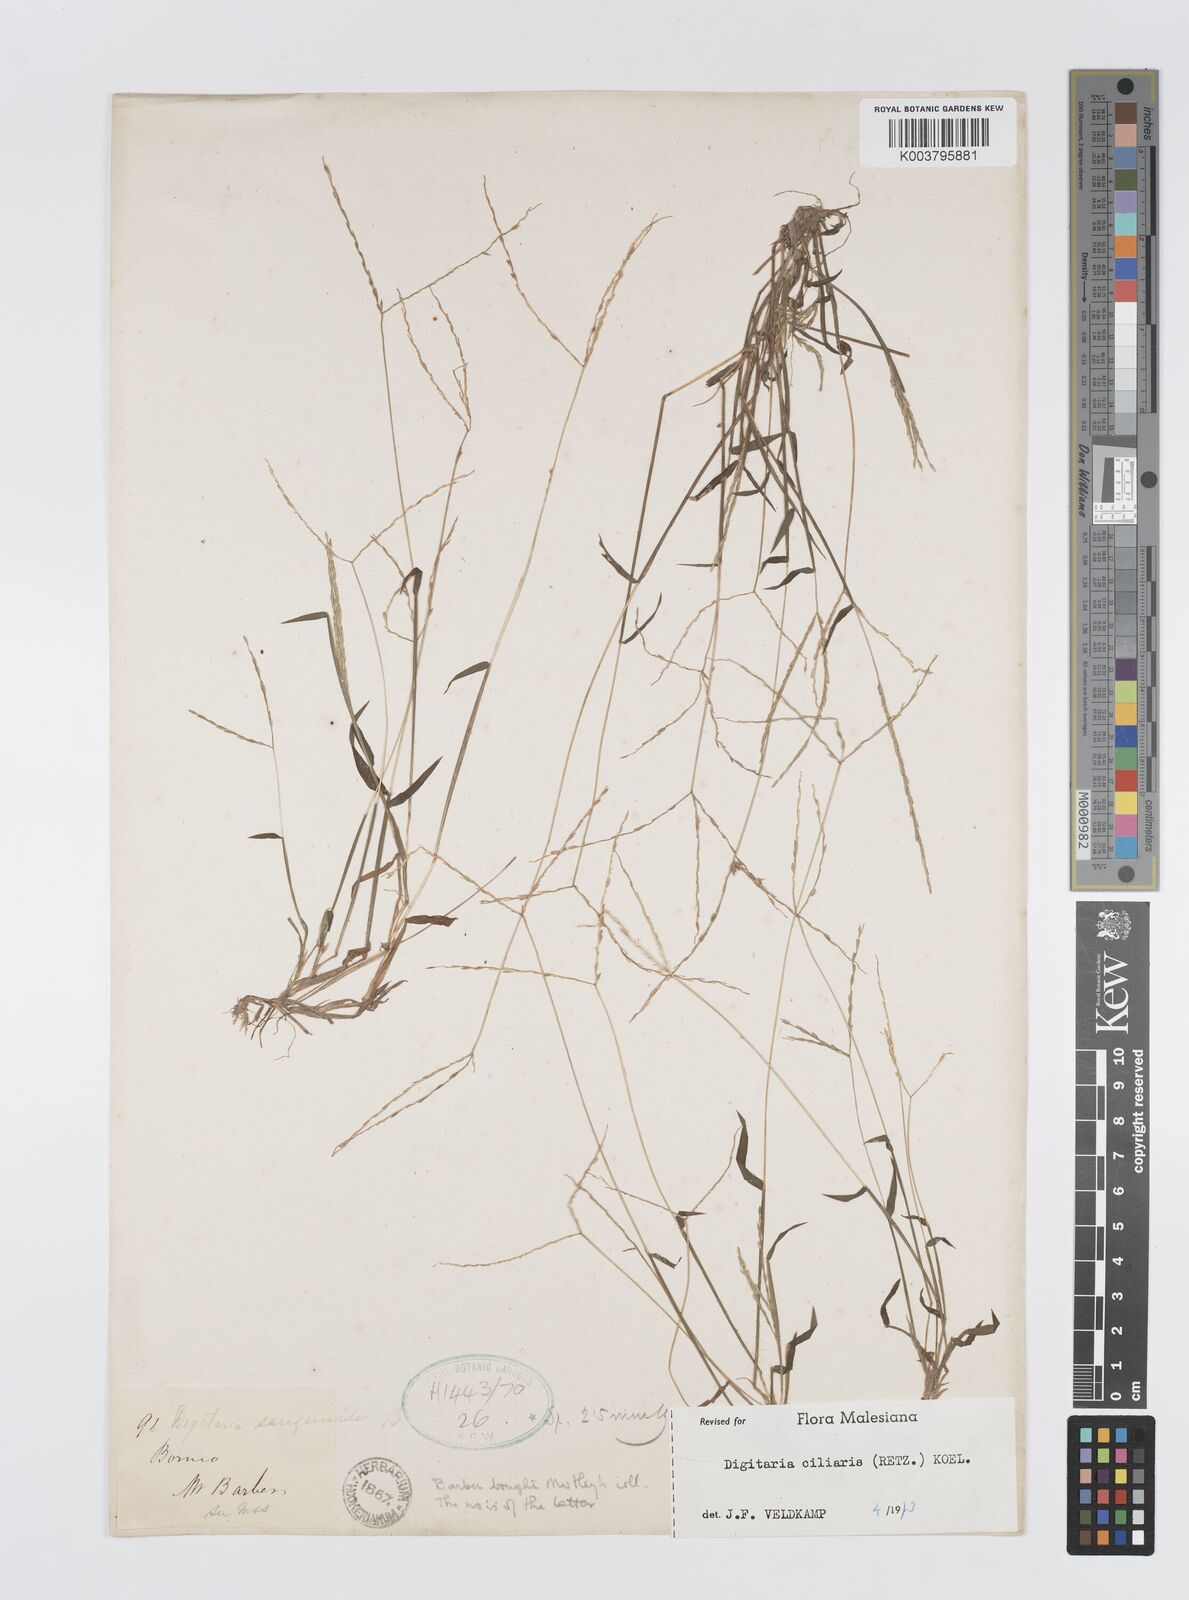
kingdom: Plantae
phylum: Tracheophyta
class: Liliopsida
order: Poales
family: Poaceae
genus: Digitaria
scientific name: Digitaria ciliaris
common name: Tropical finger-grass
